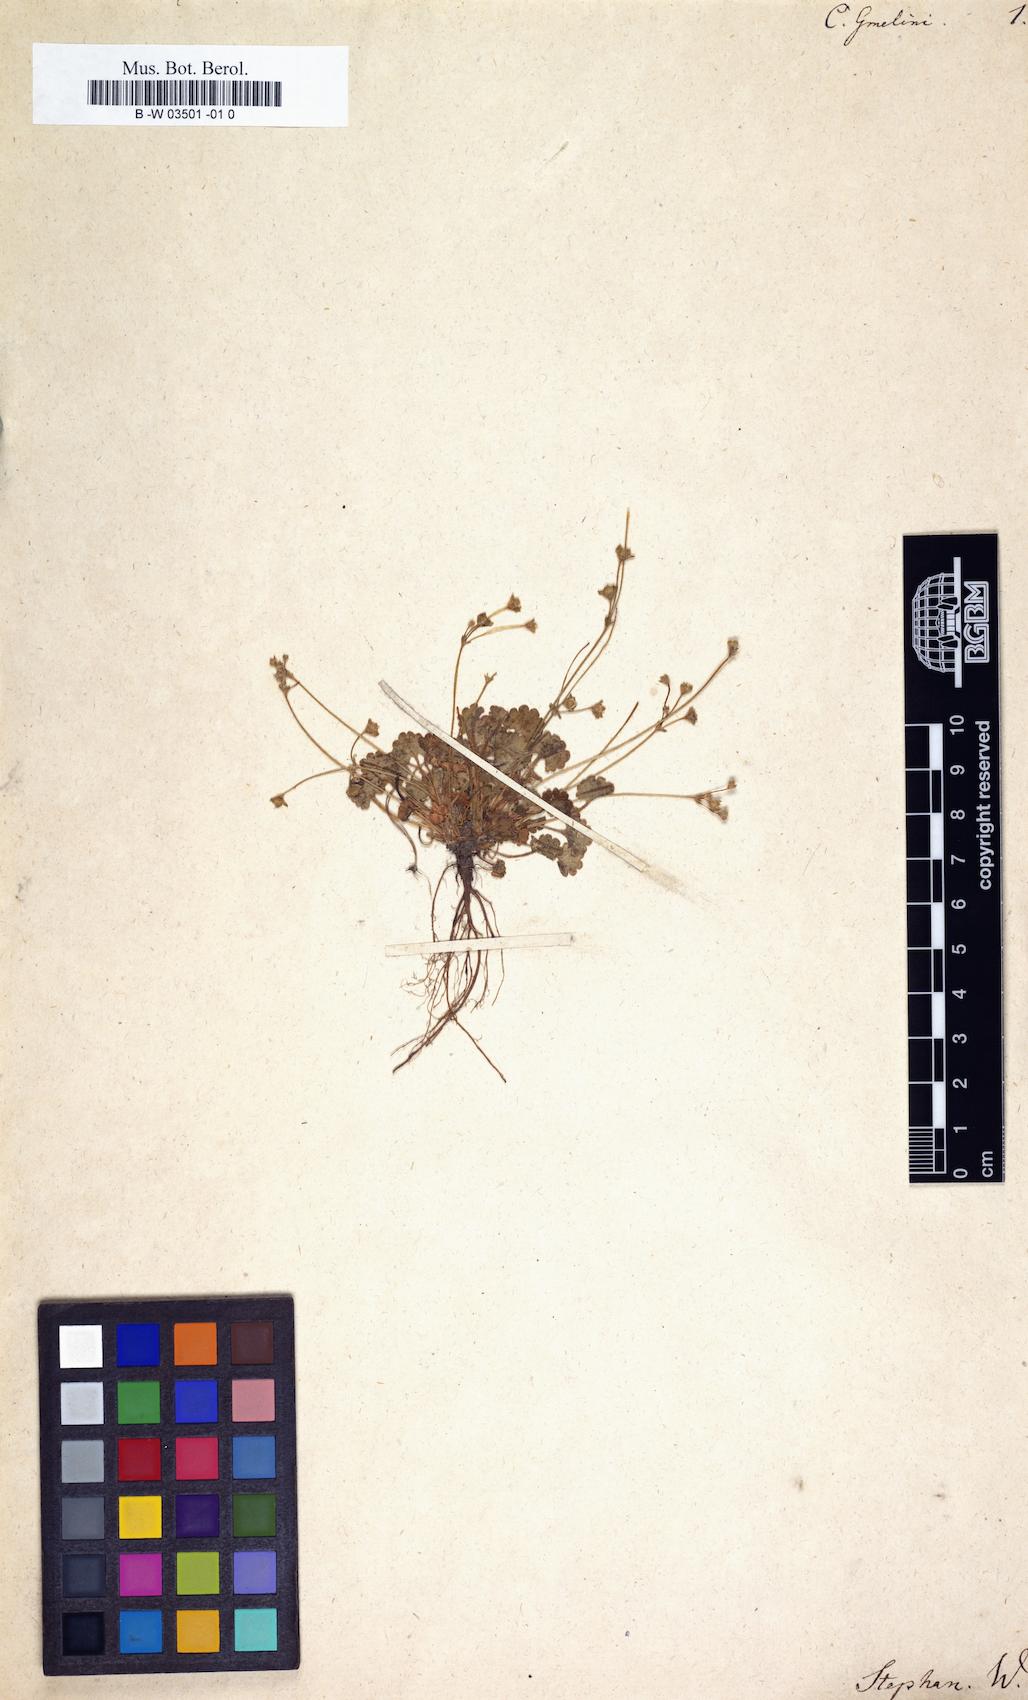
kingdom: Plantae
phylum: Tracheophyta
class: Magnoliopsida
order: Ericales
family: Primulaceae
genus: Androsace
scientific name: Androsace gmelinii
